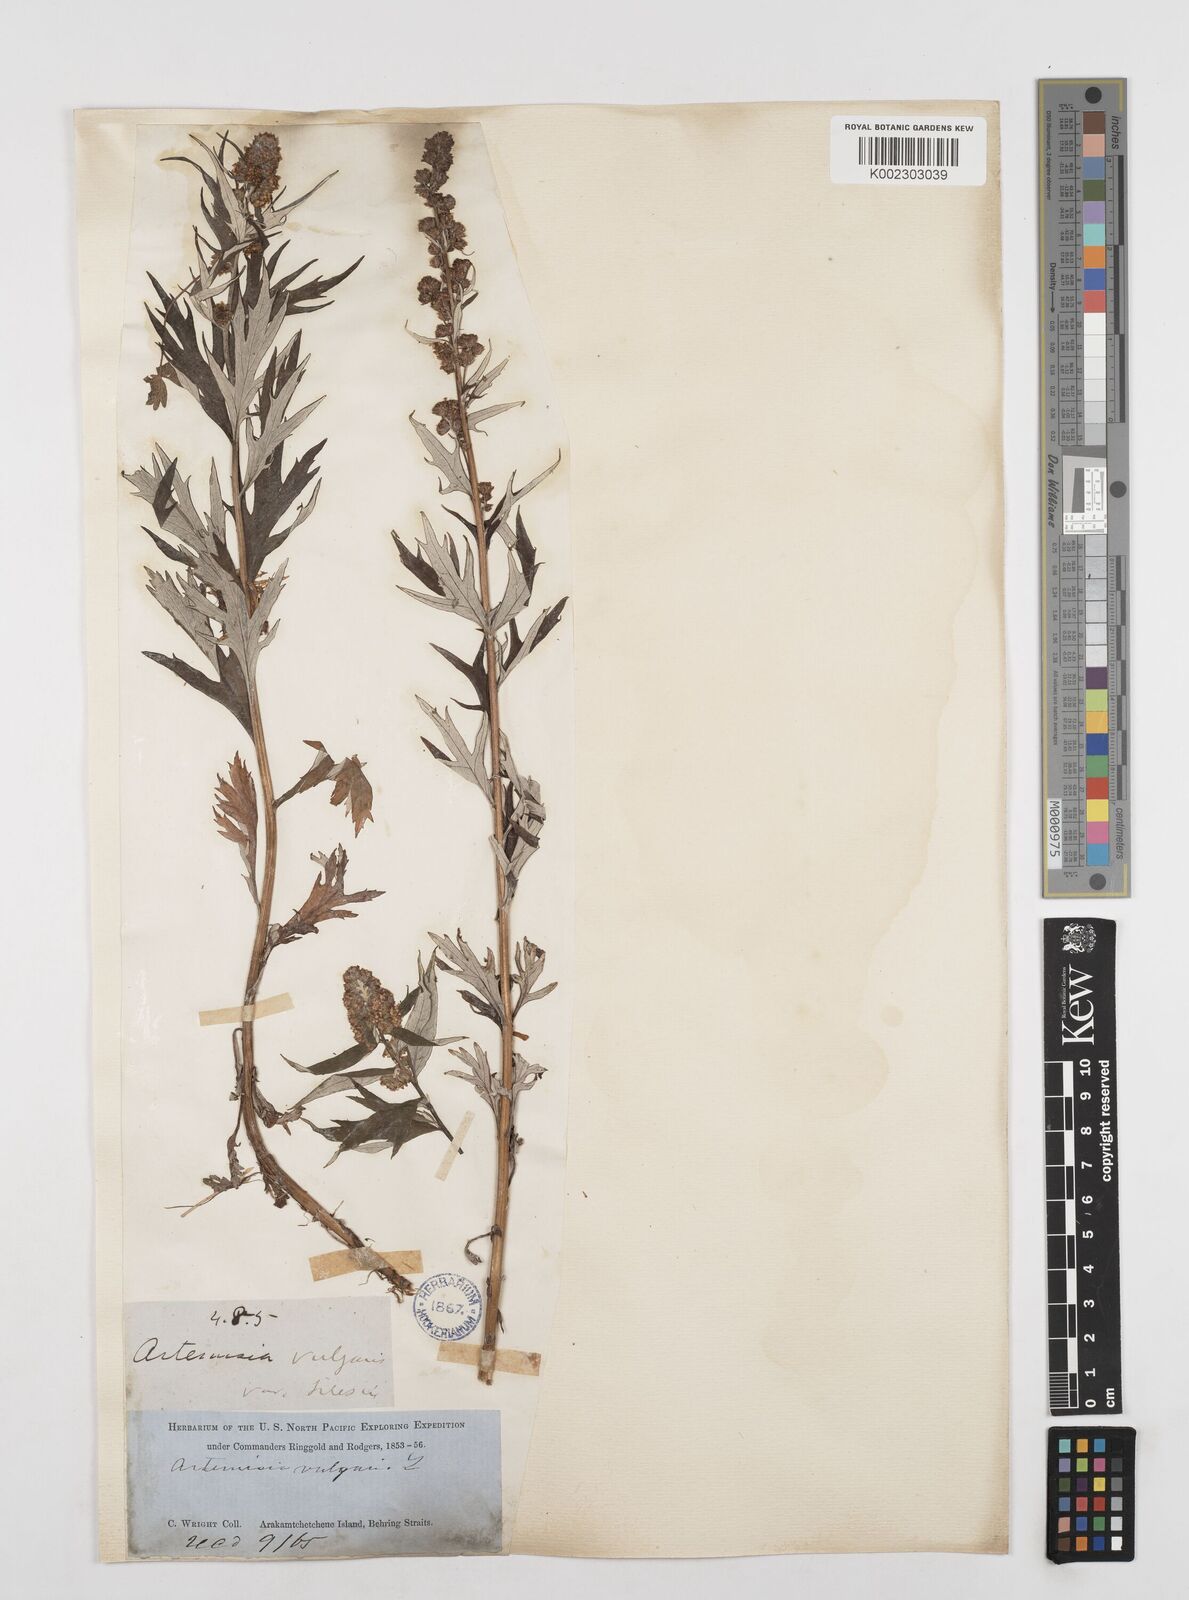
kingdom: Plantae
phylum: Tracheophyta
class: Magnoliopsida
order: Asterales
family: Asteraceae
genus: Artemisia
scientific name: Artemisia tilesii
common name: Aleutian mugwort
